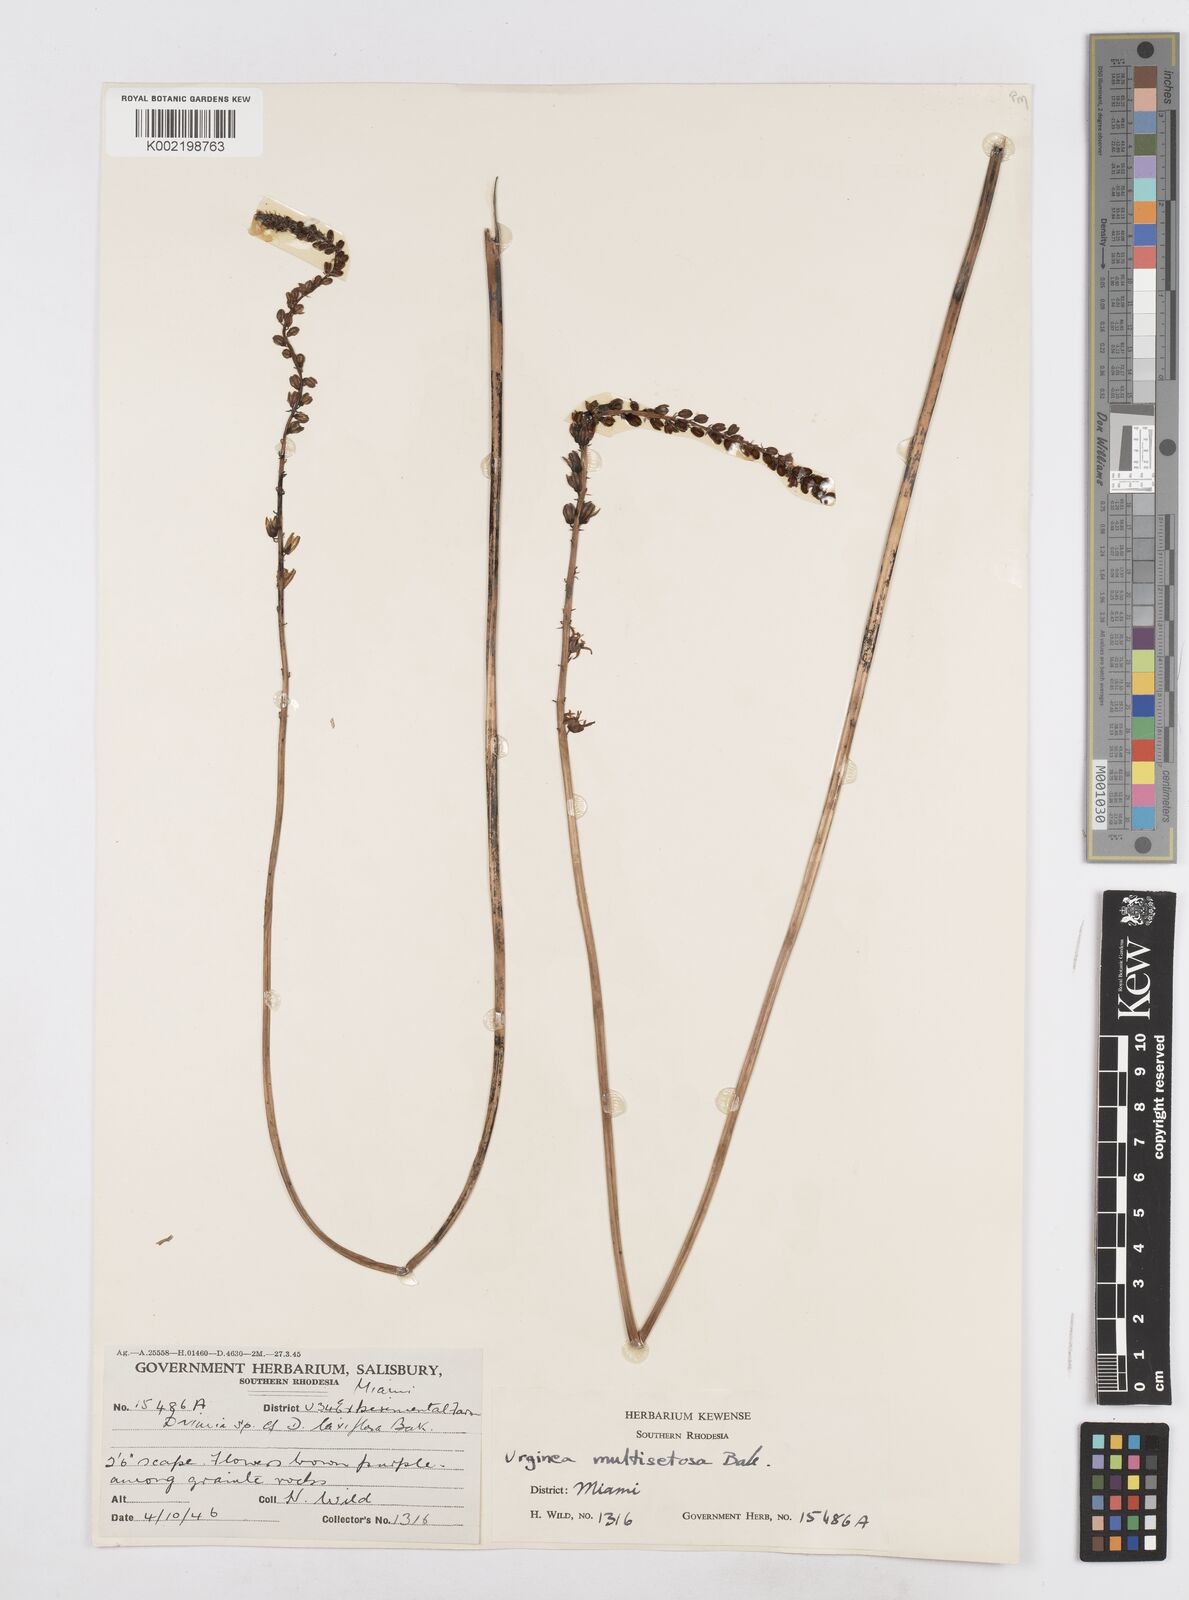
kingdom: Plantae
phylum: Tracheophyta
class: Liliopsida
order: Asparagales
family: Asparagaceae
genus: Drimia
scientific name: Drimia multisetosa
